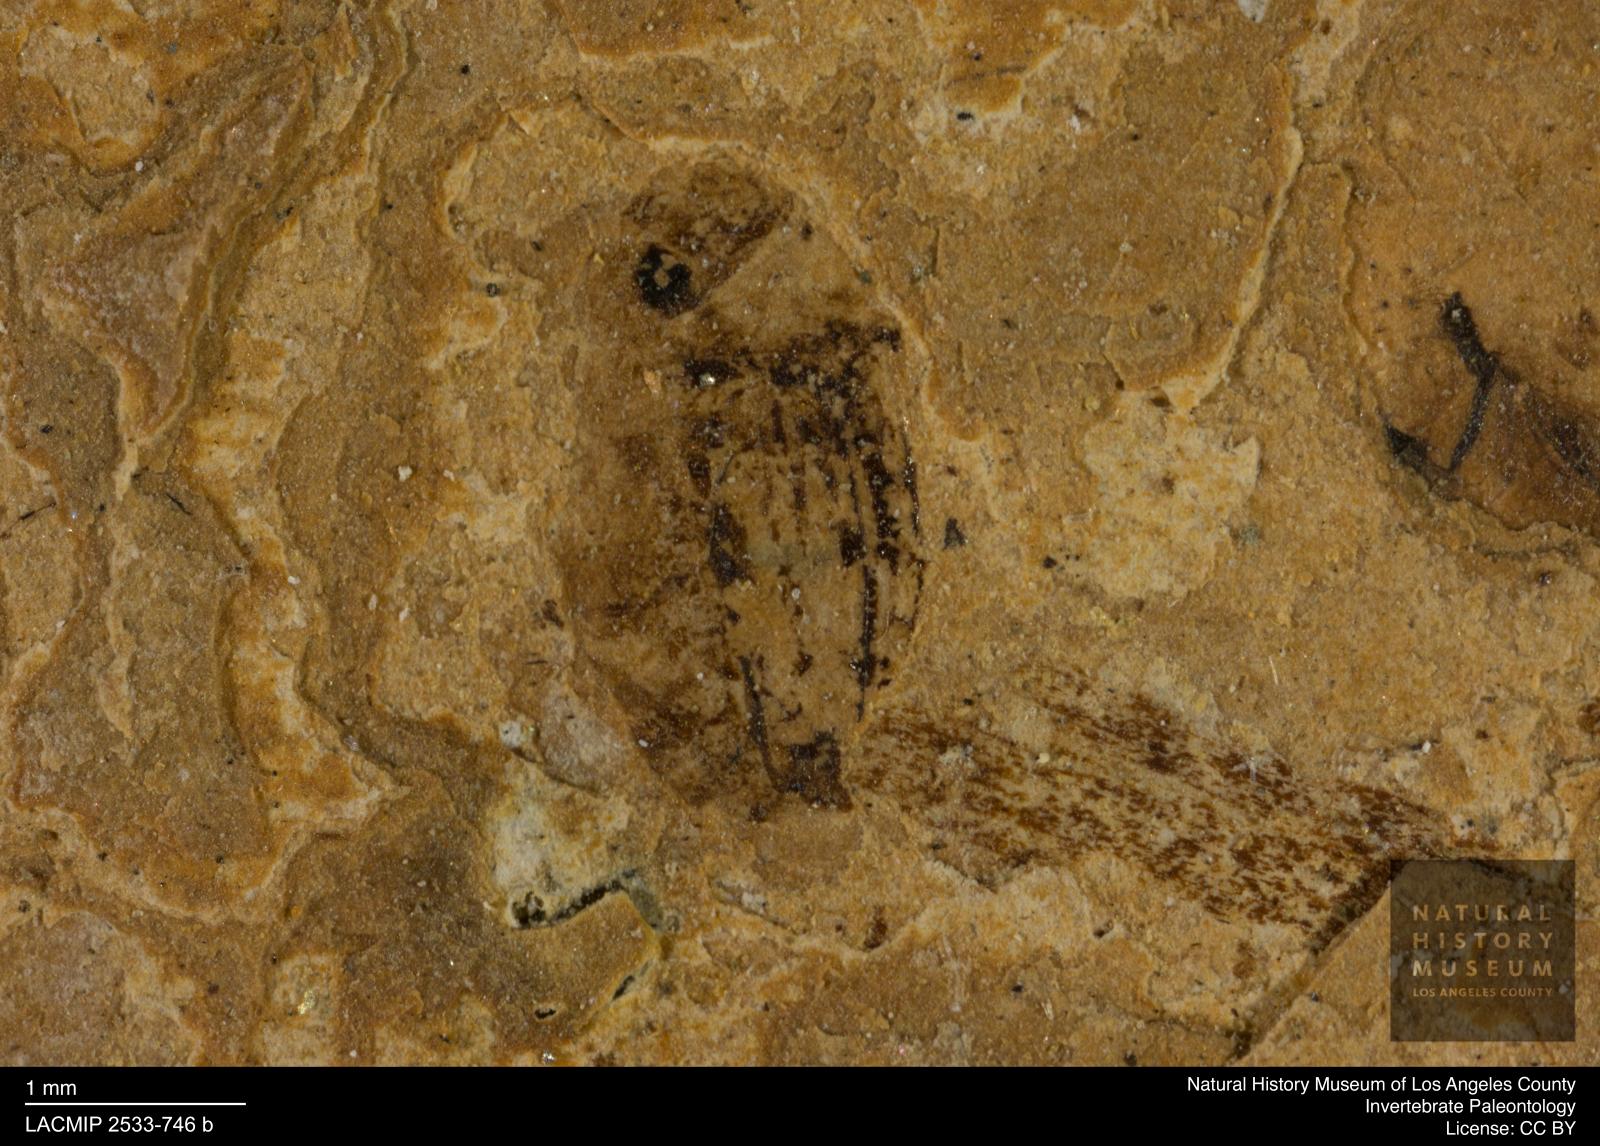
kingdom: Animalia
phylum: Arthropoda
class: Insecta
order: Coleoptera
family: Dytiscidae
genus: Oreodytes
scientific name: Oreodytes cryptolineatus
